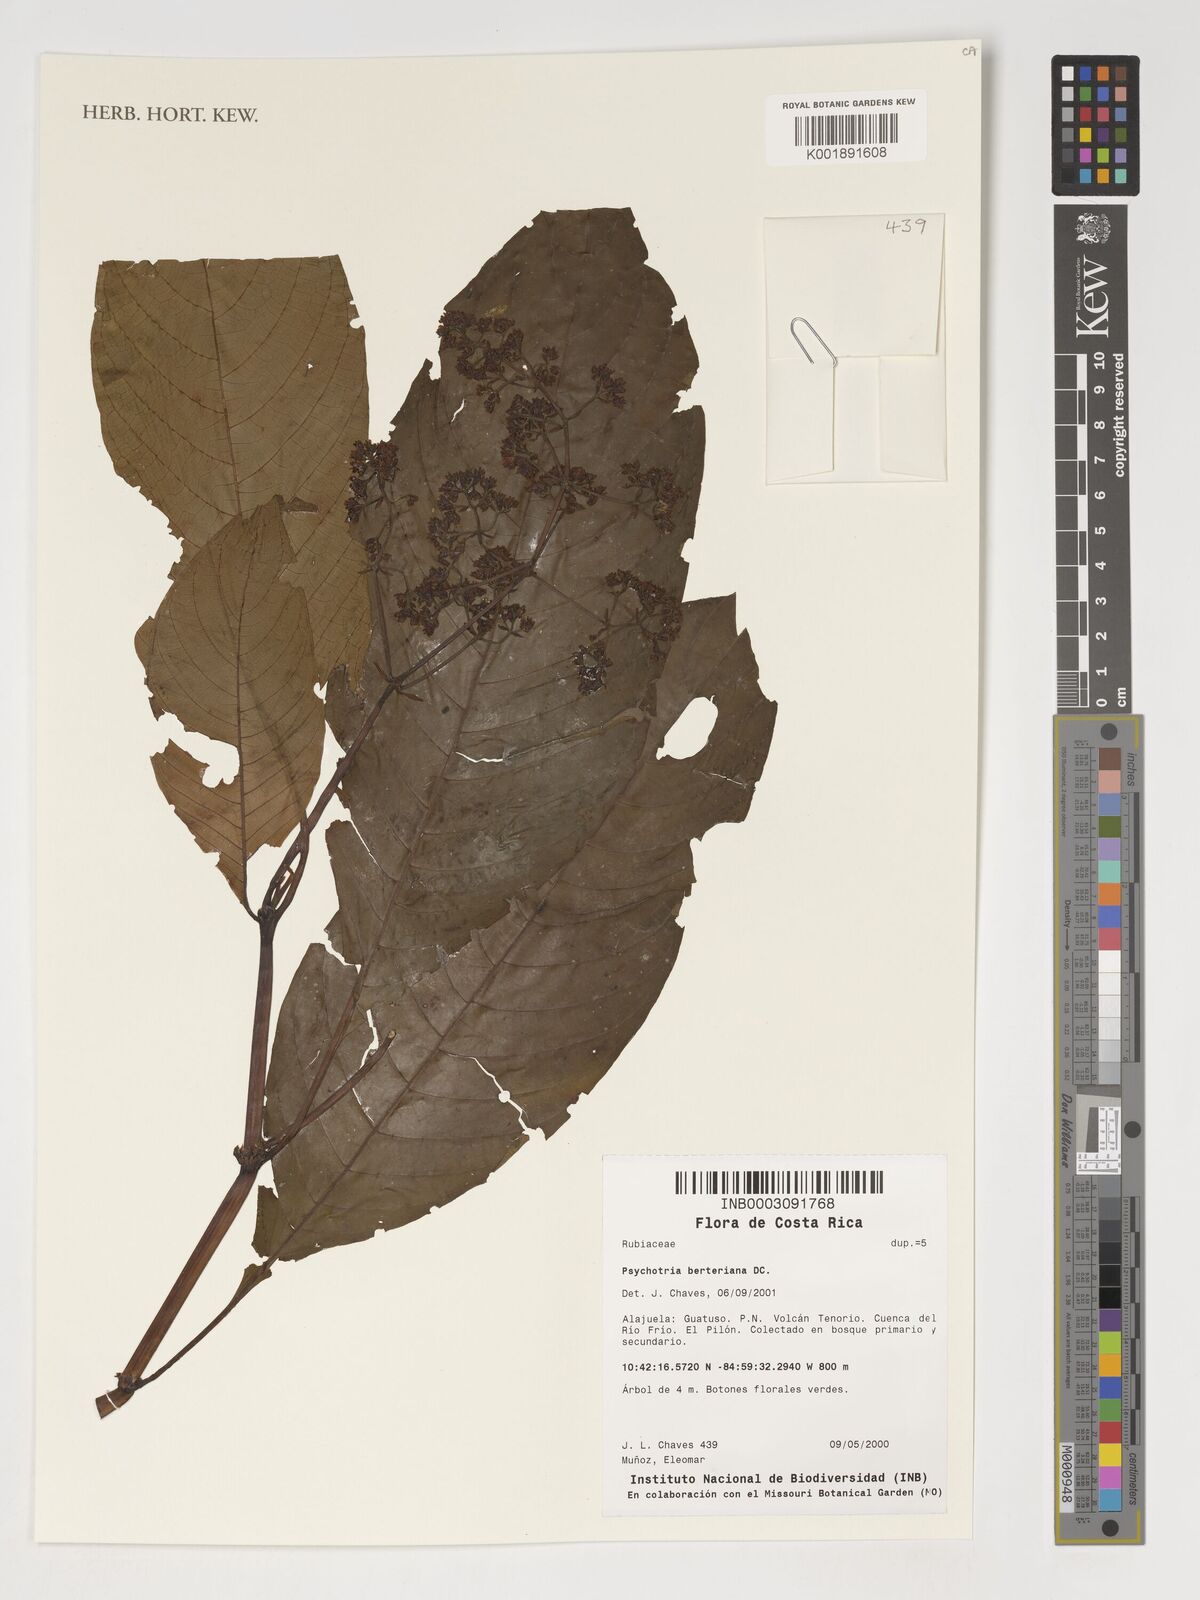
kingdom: Plantae
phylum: Tracheophyta
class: Magnoliopsida
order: Gentianales
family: Rubiaceae
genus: Palicourea
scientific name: Palicourea berteroana
